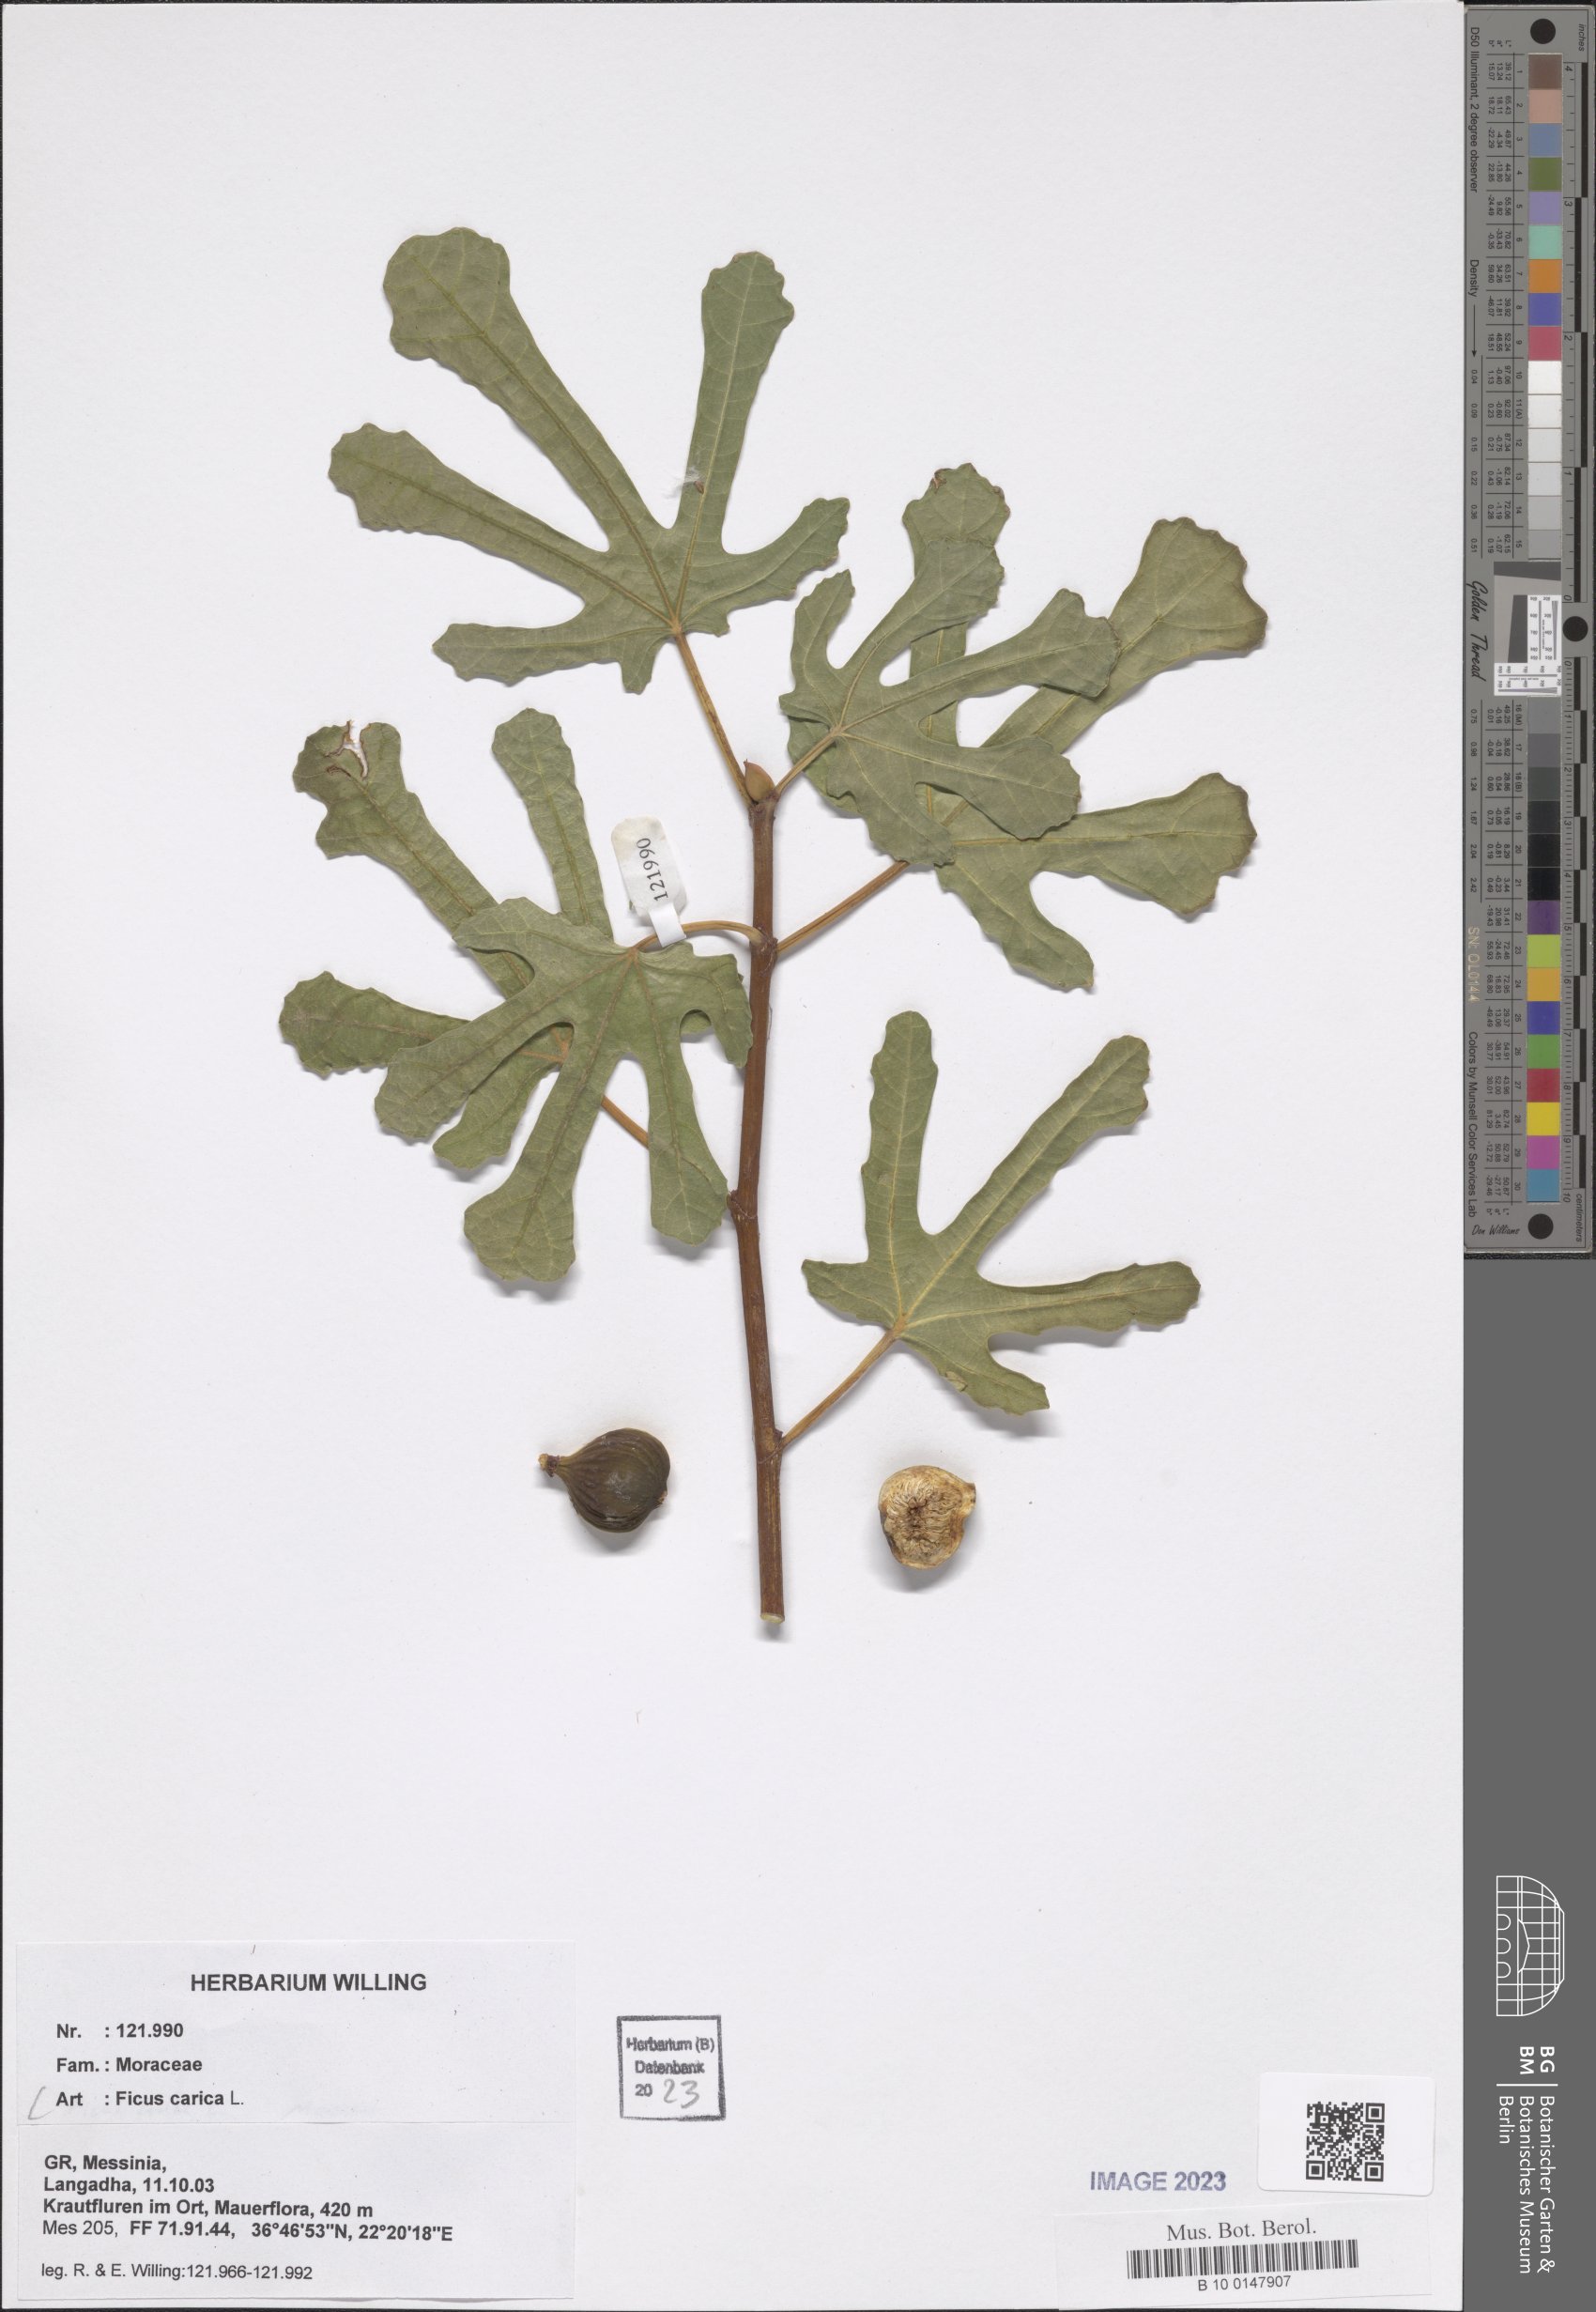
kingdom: Plantae
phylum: Tracheophyta
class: Magnoliopsida
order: Rosales
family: Moraceae
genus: Ficus
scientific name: Ficus carica
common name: Fig
